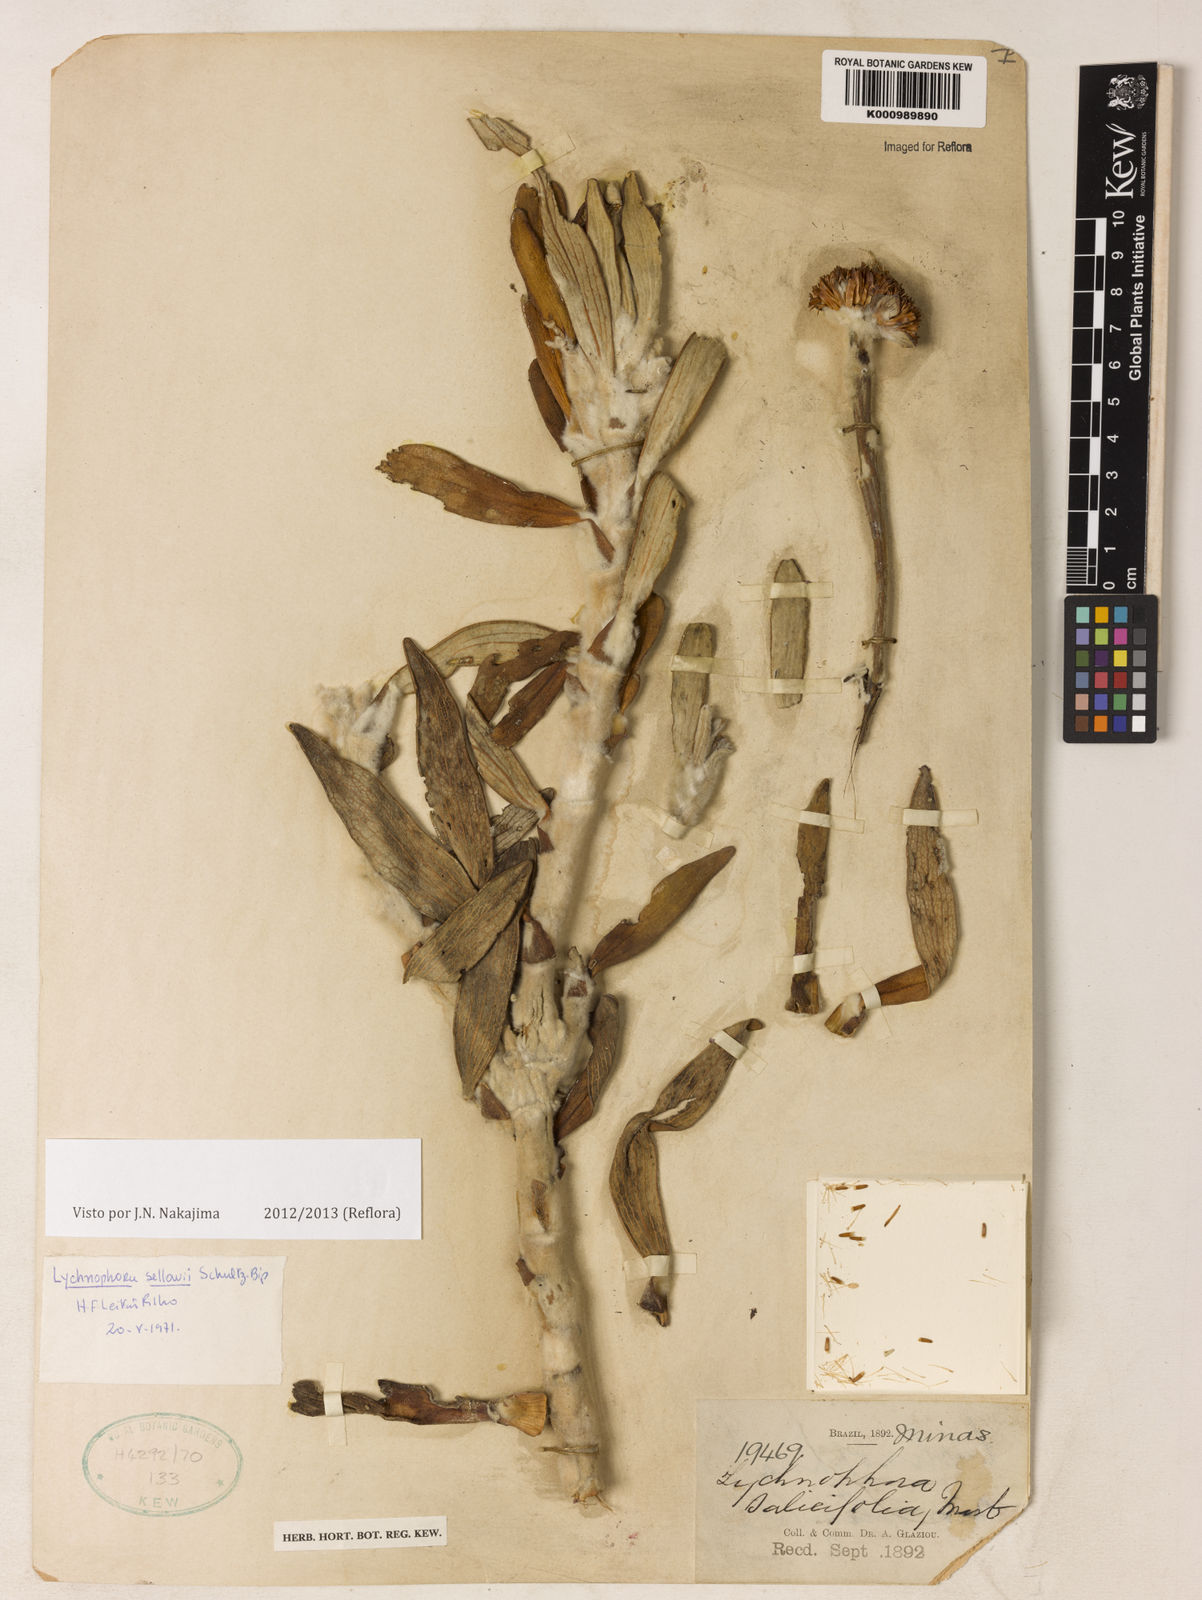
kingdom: Plantae
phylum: Tracheophyta
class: Magnoliopsida
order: Asterales
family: Asteraceae
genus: Lychnophora
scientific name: Lychnophora
